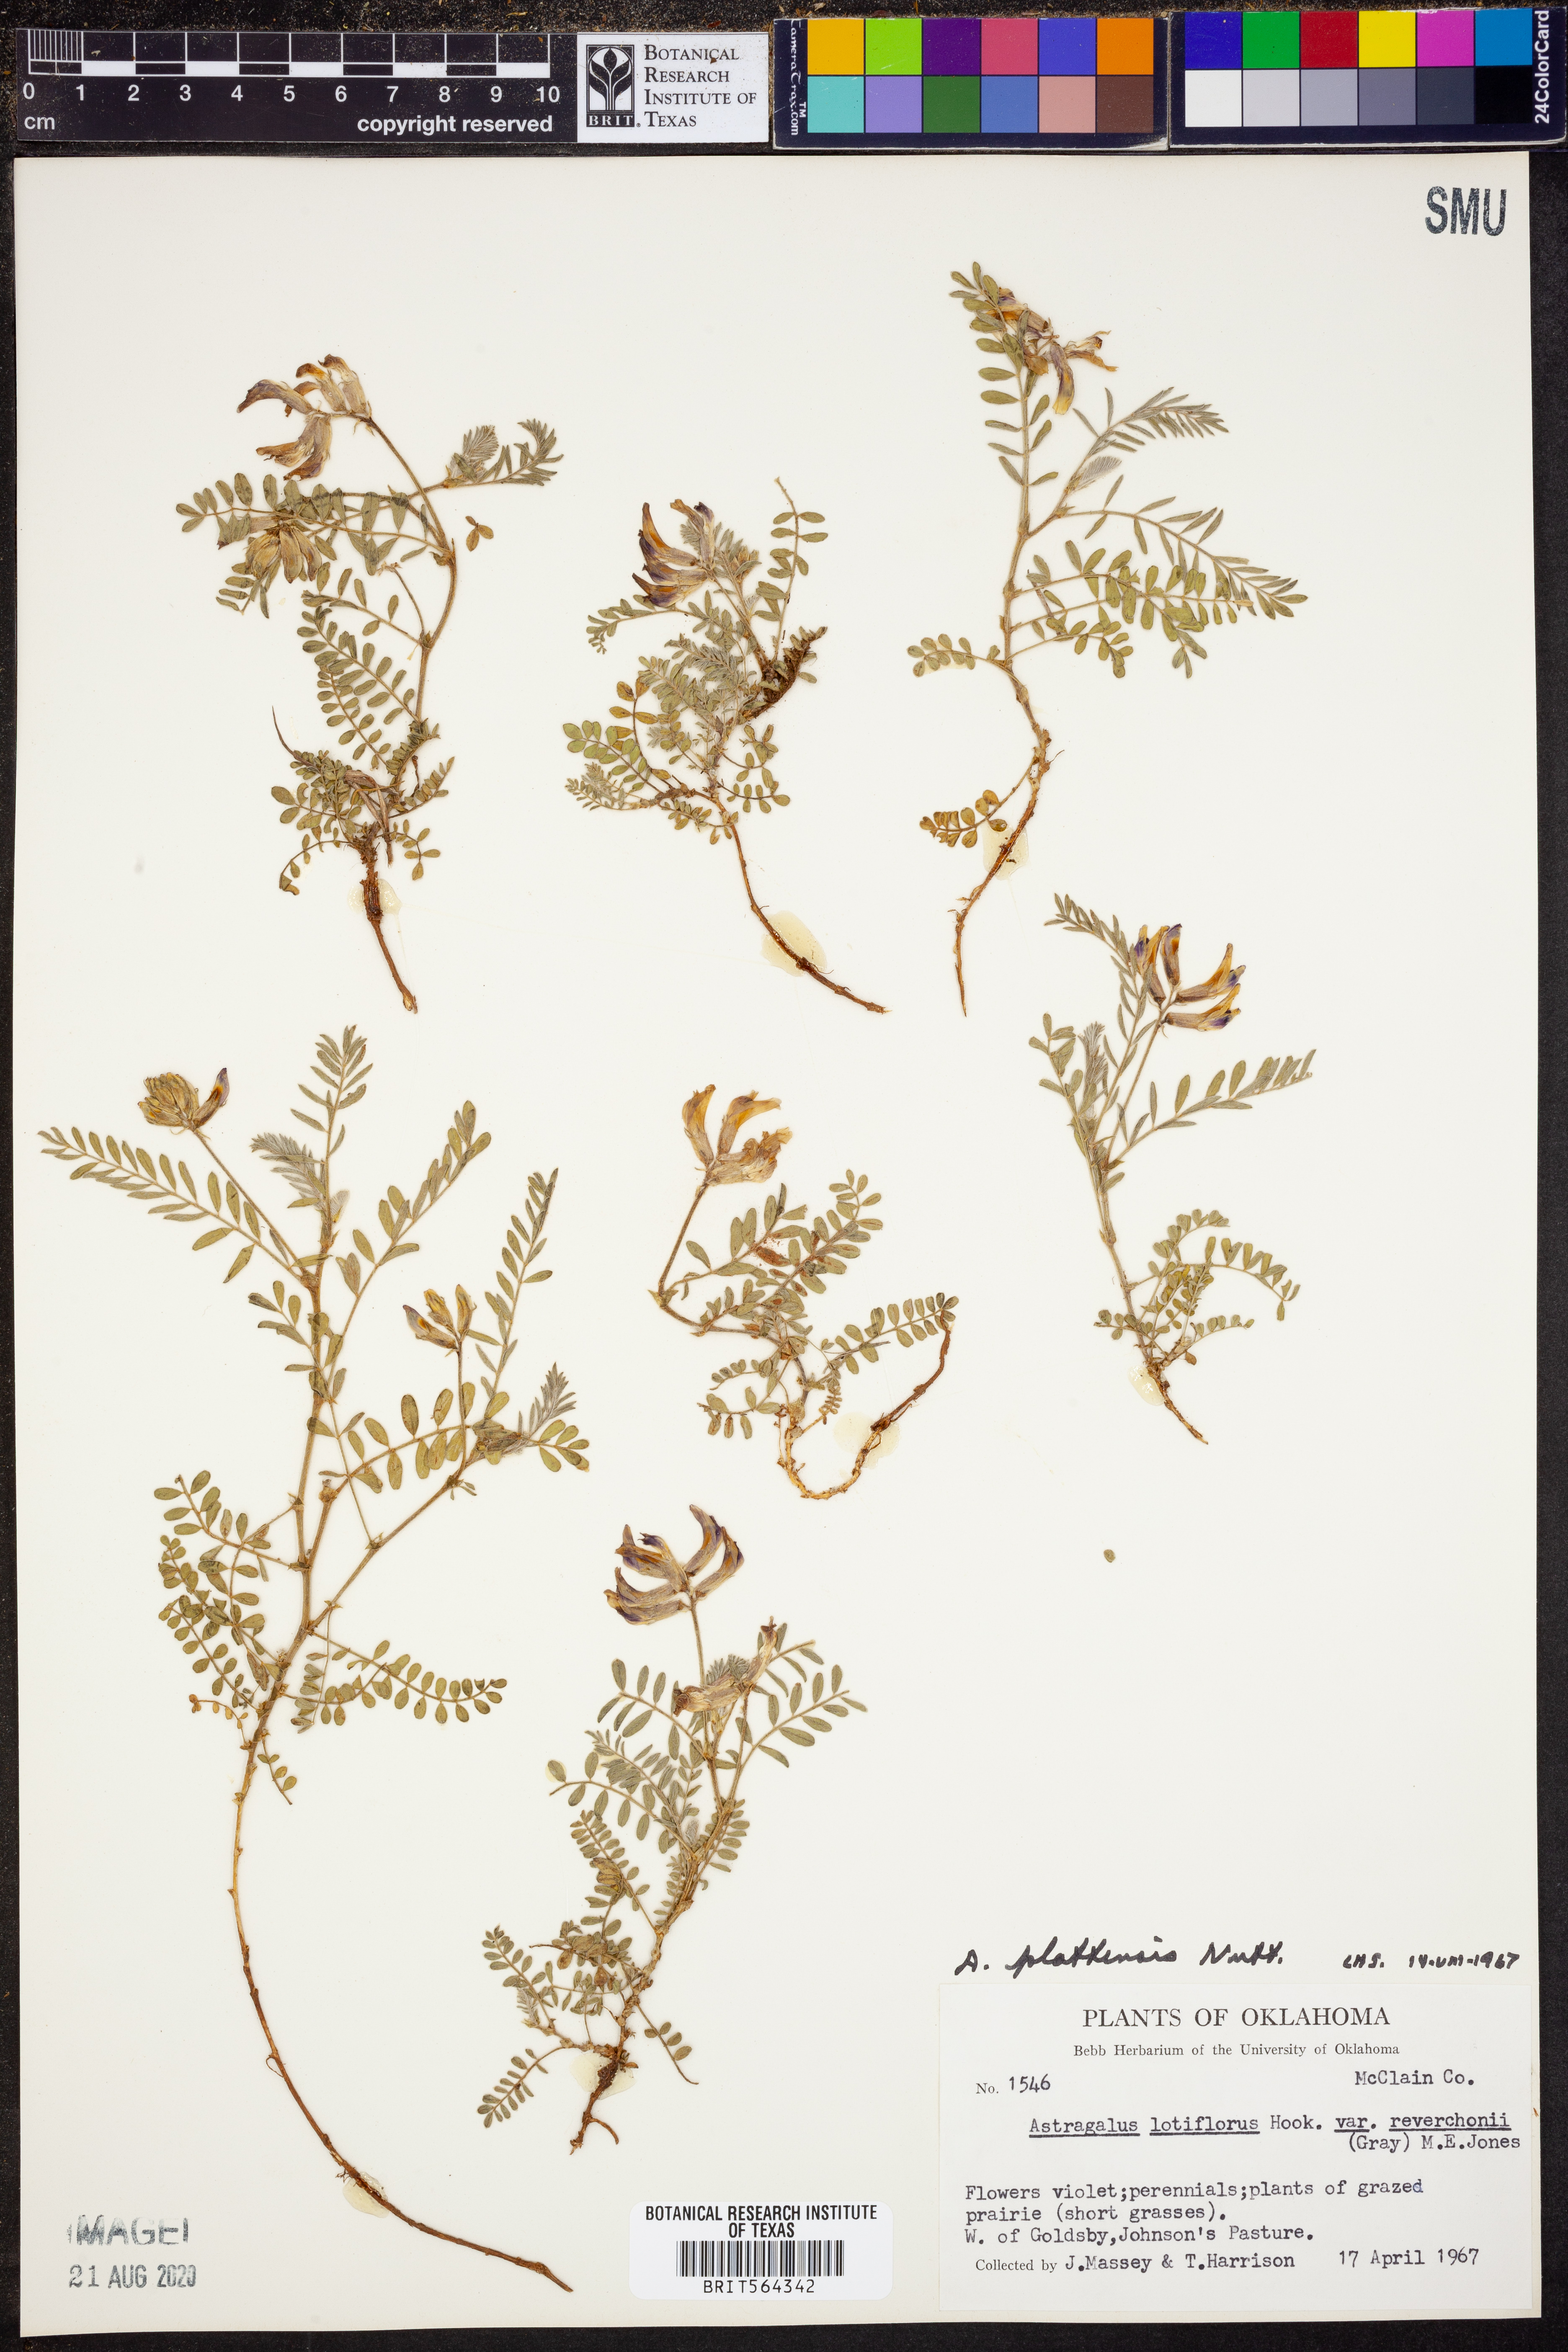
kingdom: Plantae
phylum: Tracheophyta
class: Magnoliopsida
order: Fabales
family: Fabaceae
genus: Astragalus
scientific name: Astragalus plattensis
